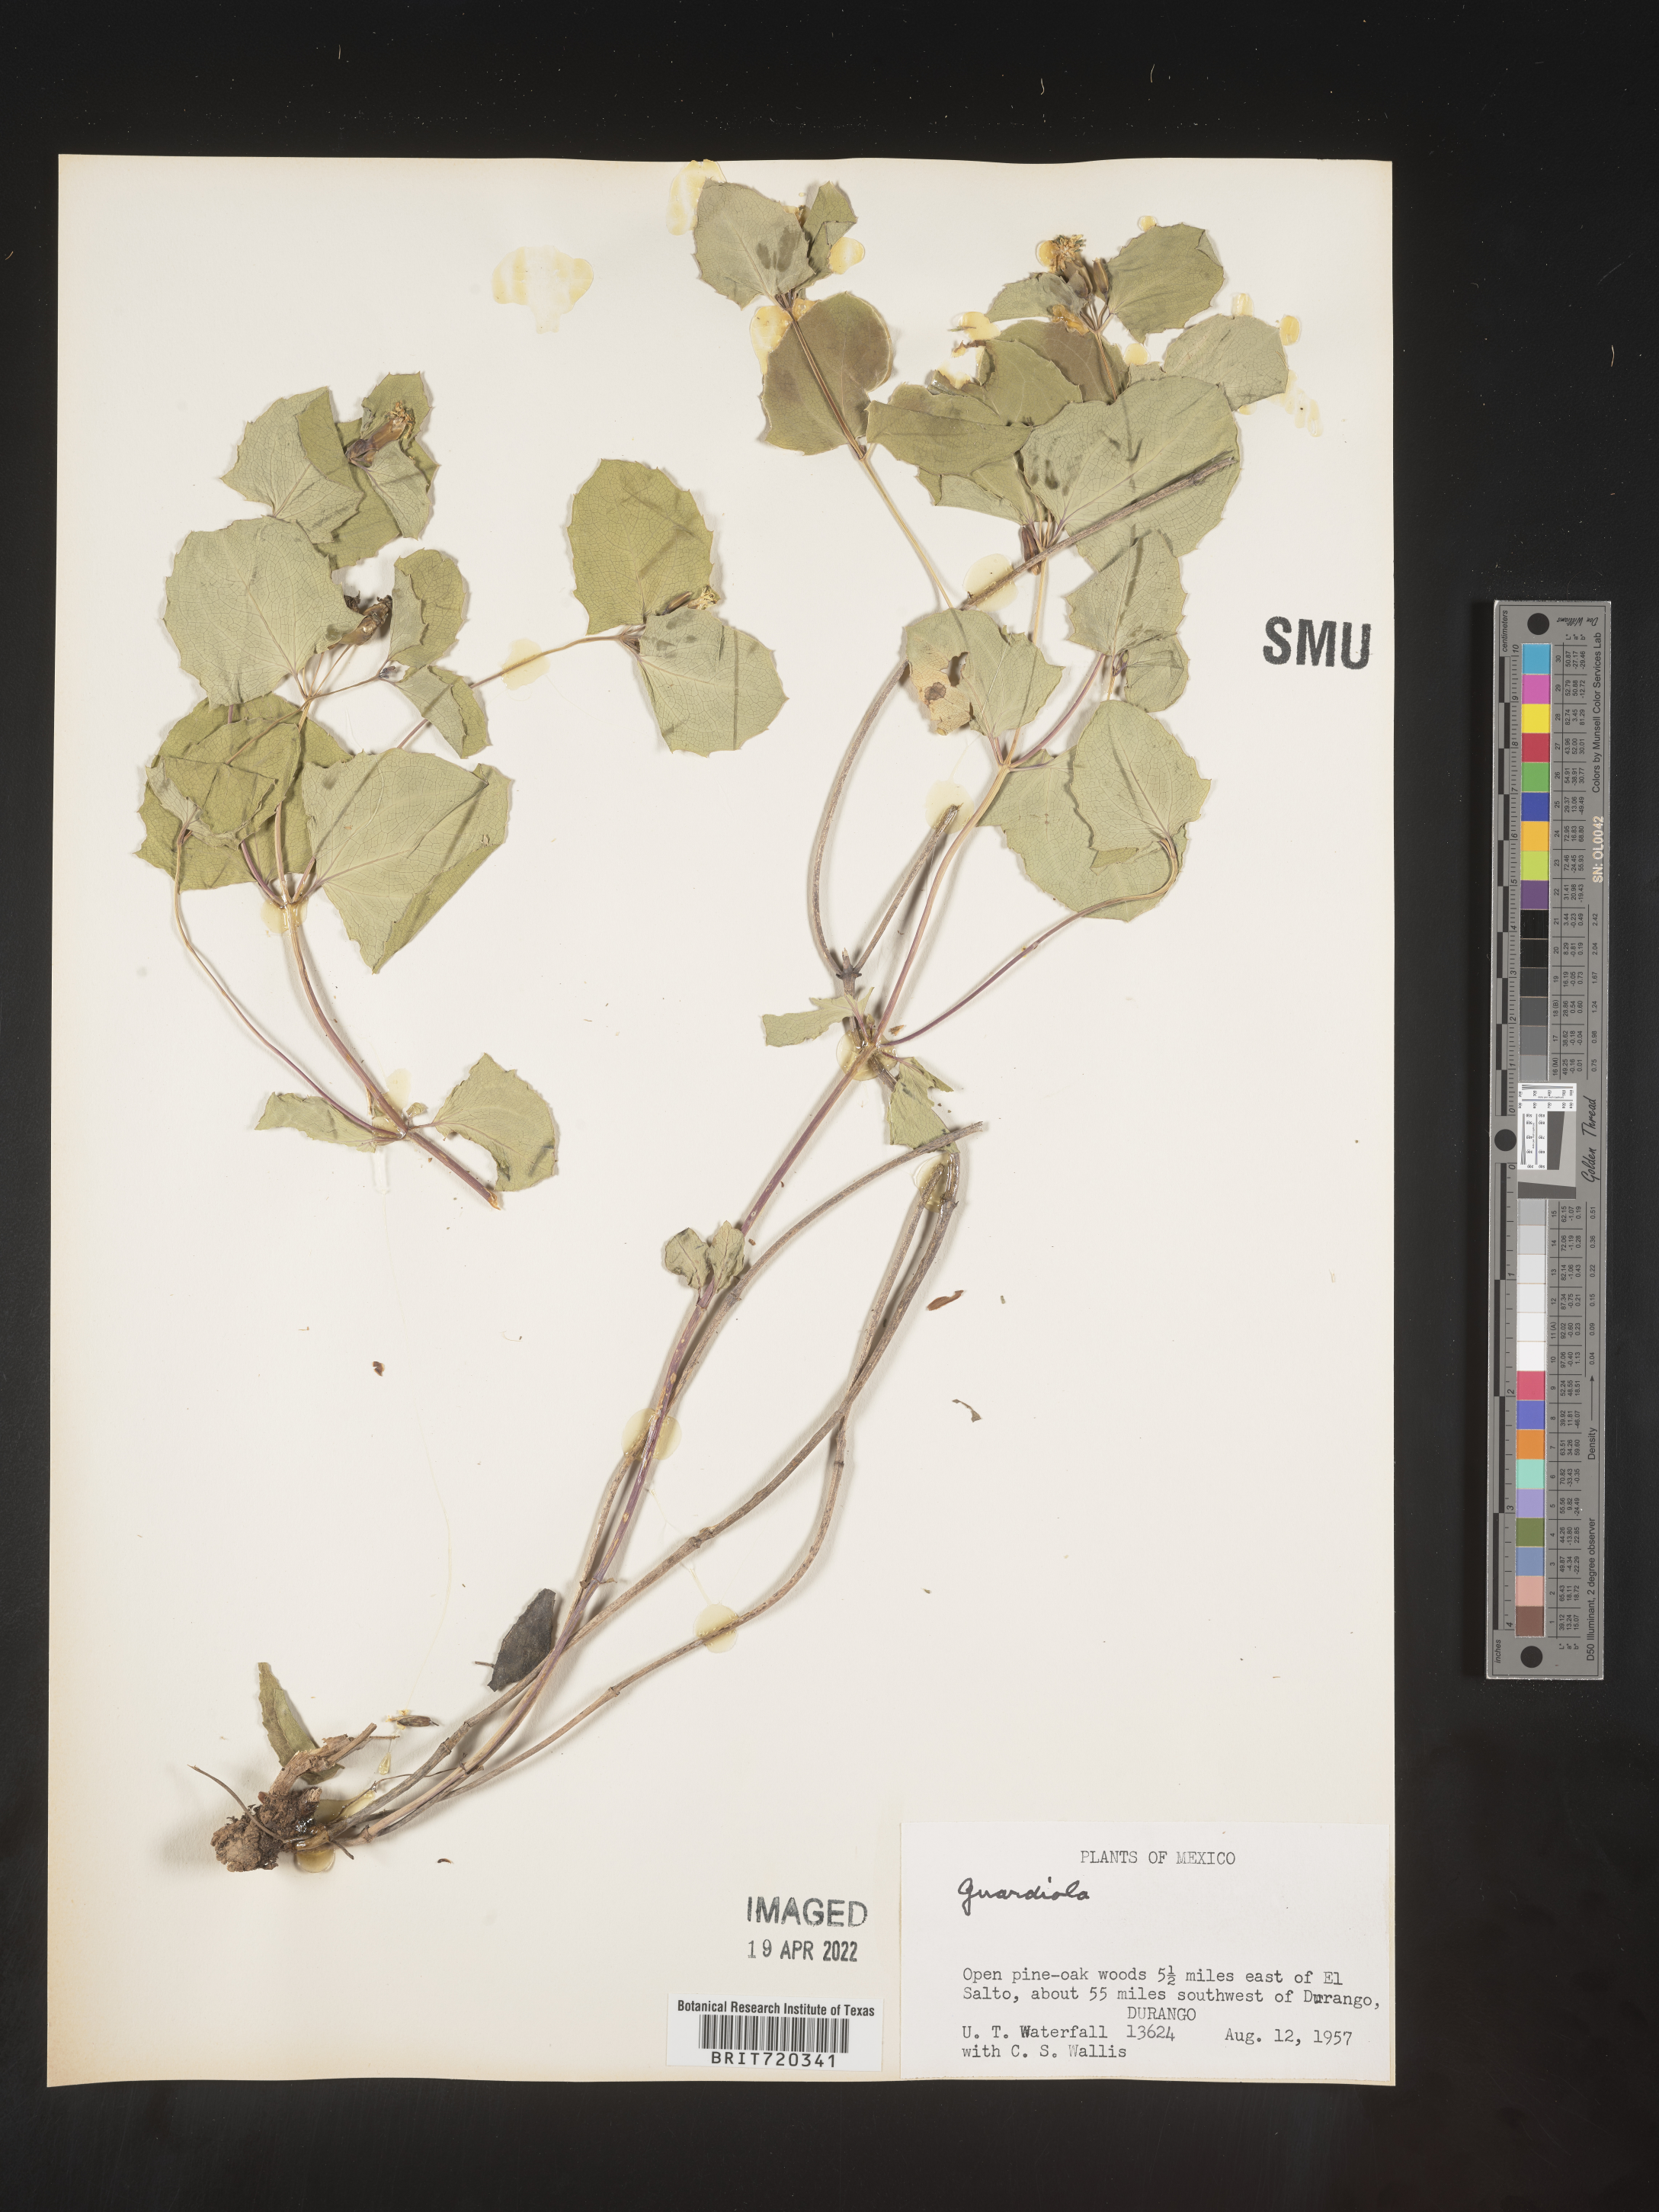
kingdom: Plantae
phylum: Tracheophyta
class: Magnoliopsida
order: Asterales
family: Asteraceae
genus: Guardiola
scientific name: Guardiola
